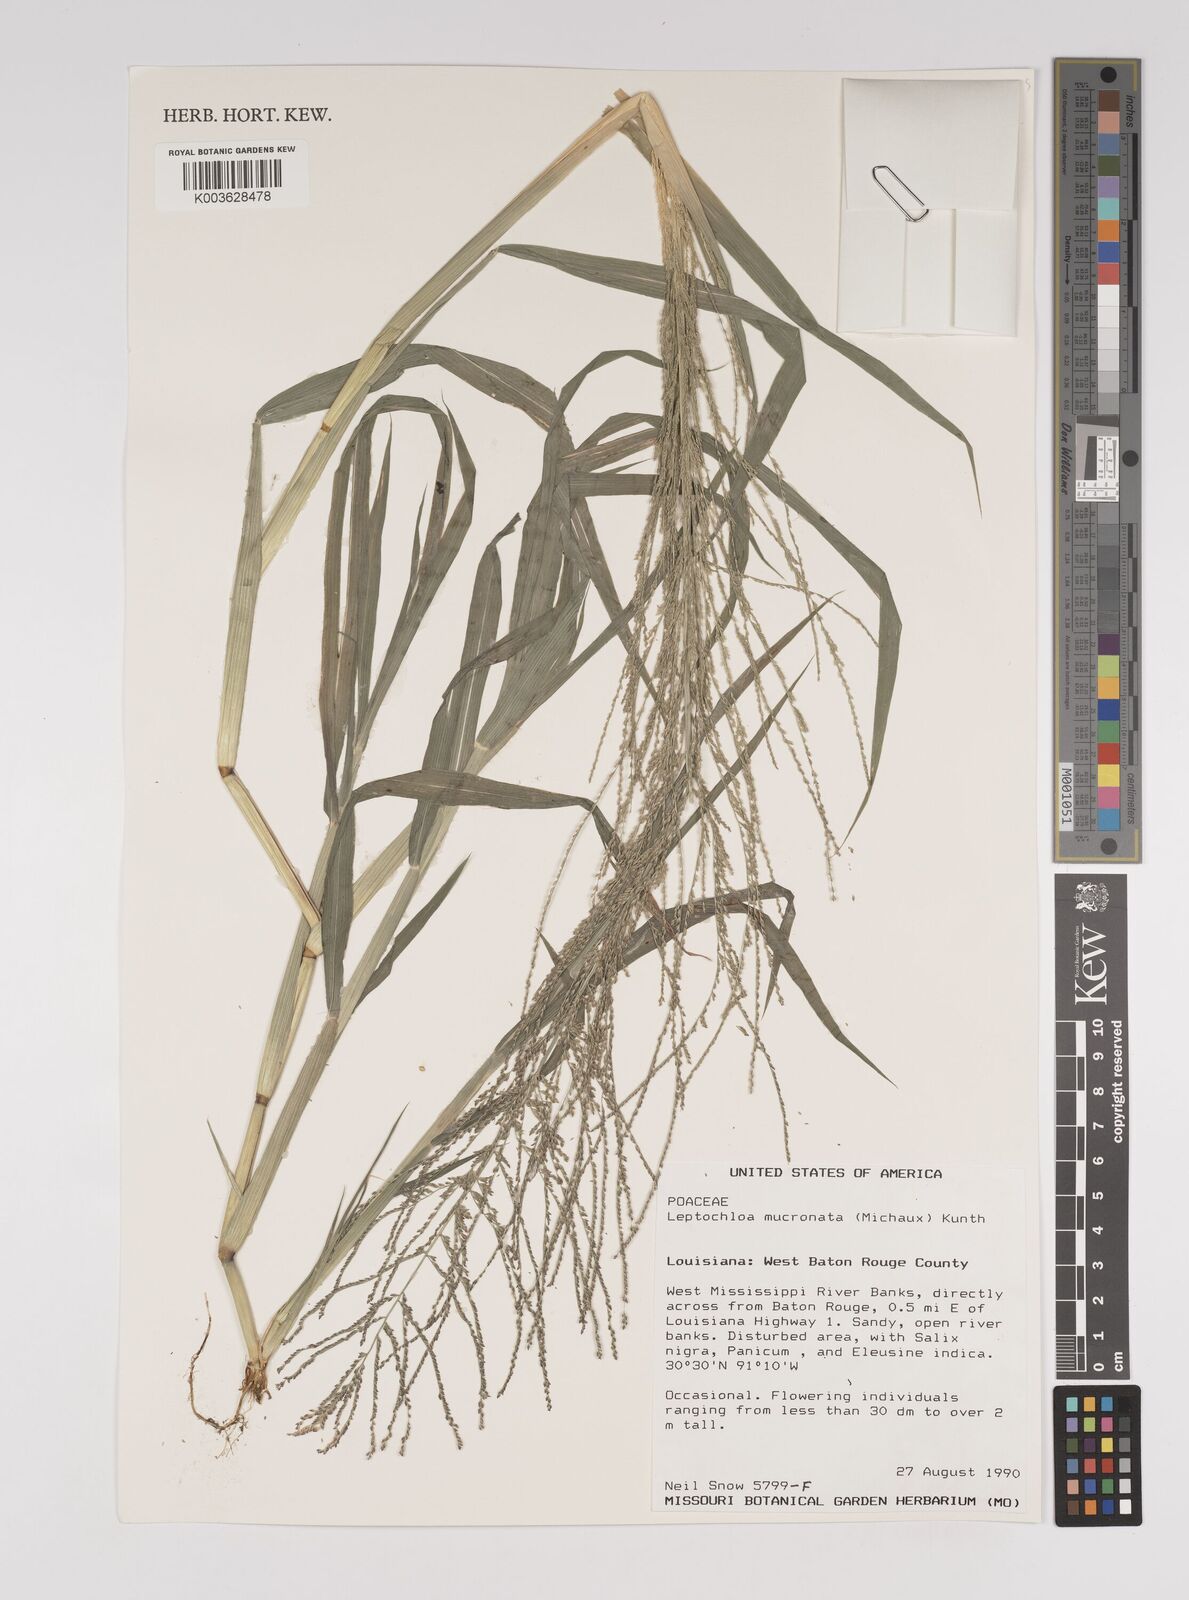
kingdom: Plantae
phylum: Tracheophyta
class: Liliopsida
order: Poales
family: Poaceae
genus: Leptochloa
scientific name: Leptochloa panicea
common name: Mucronate sprangletop
